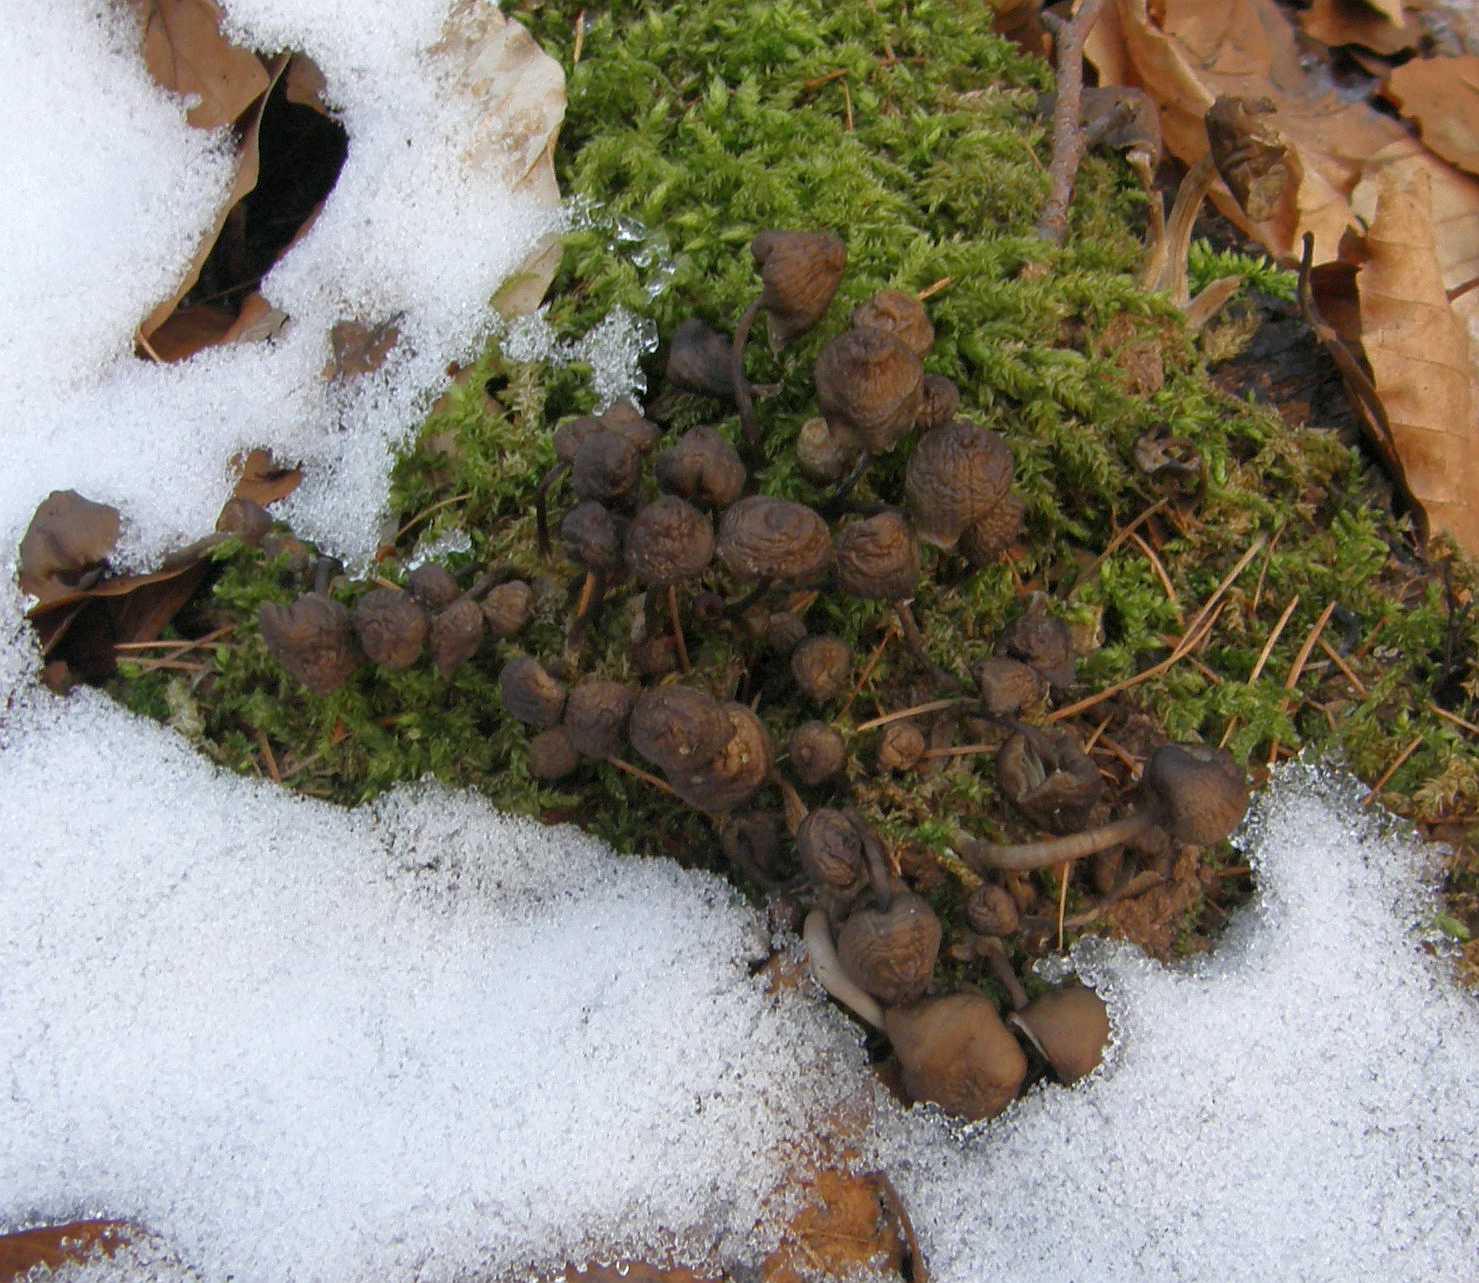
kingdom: Fungi
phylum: Basidiomycota
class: Agaricomycetes
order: Agaricales
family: Mycenaceae
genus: Mycena
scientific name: Mycena tintinnabulum
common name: vinter-huesvamp
